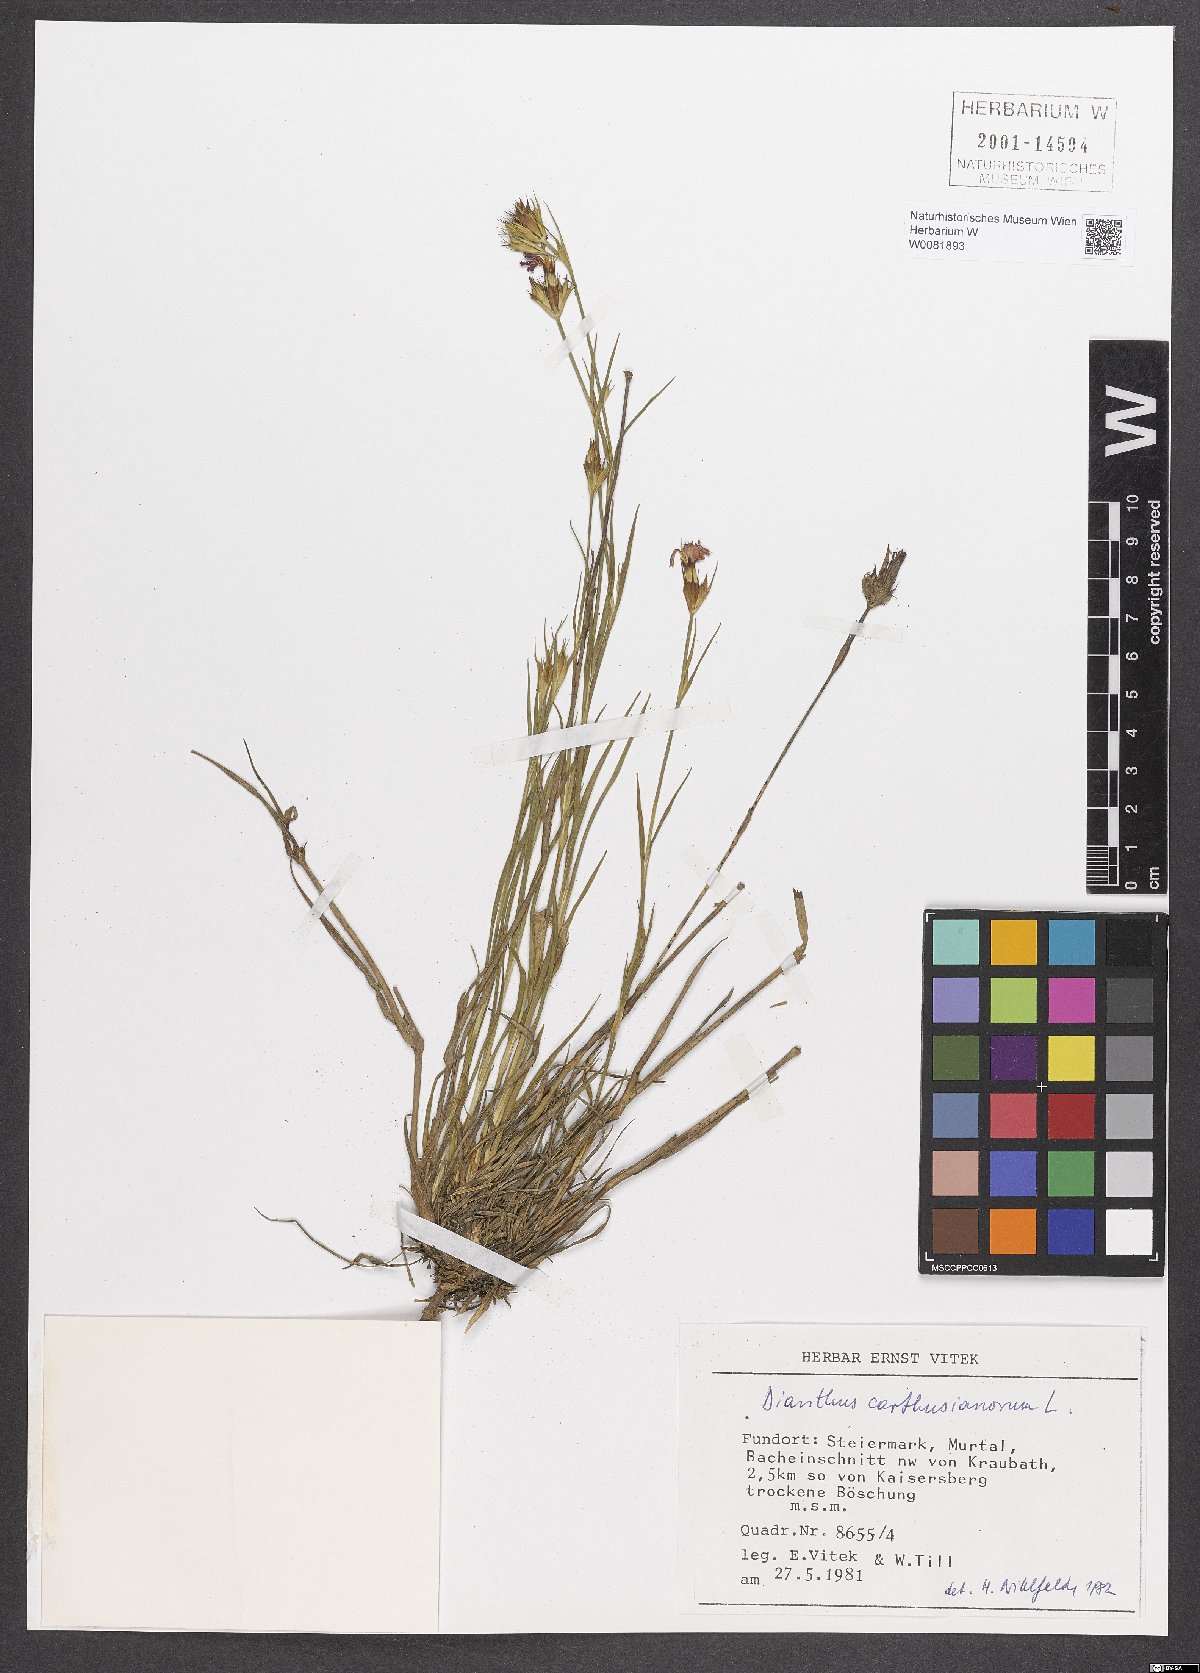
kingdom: Plantae
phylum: Tracheophyta
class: Magnoliopsida
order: Caryophyllales
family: Caryophyllaceae
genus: Dianthus
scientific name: Dianthus carthusianorum
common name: Carthusian pink
